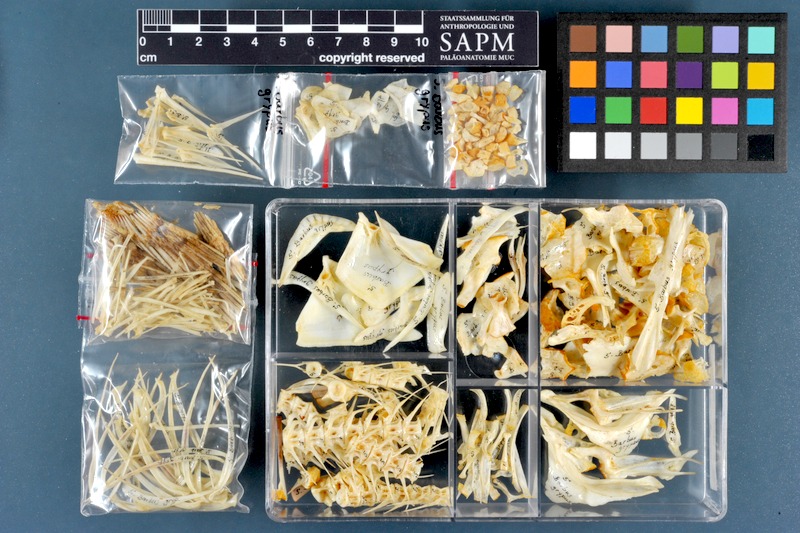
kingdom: Animalia
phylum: Chordata
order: Cypriniformes
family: Cyprinidae
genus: Arabibarbus
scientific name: Arabibarbus grypus
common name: Shabout
